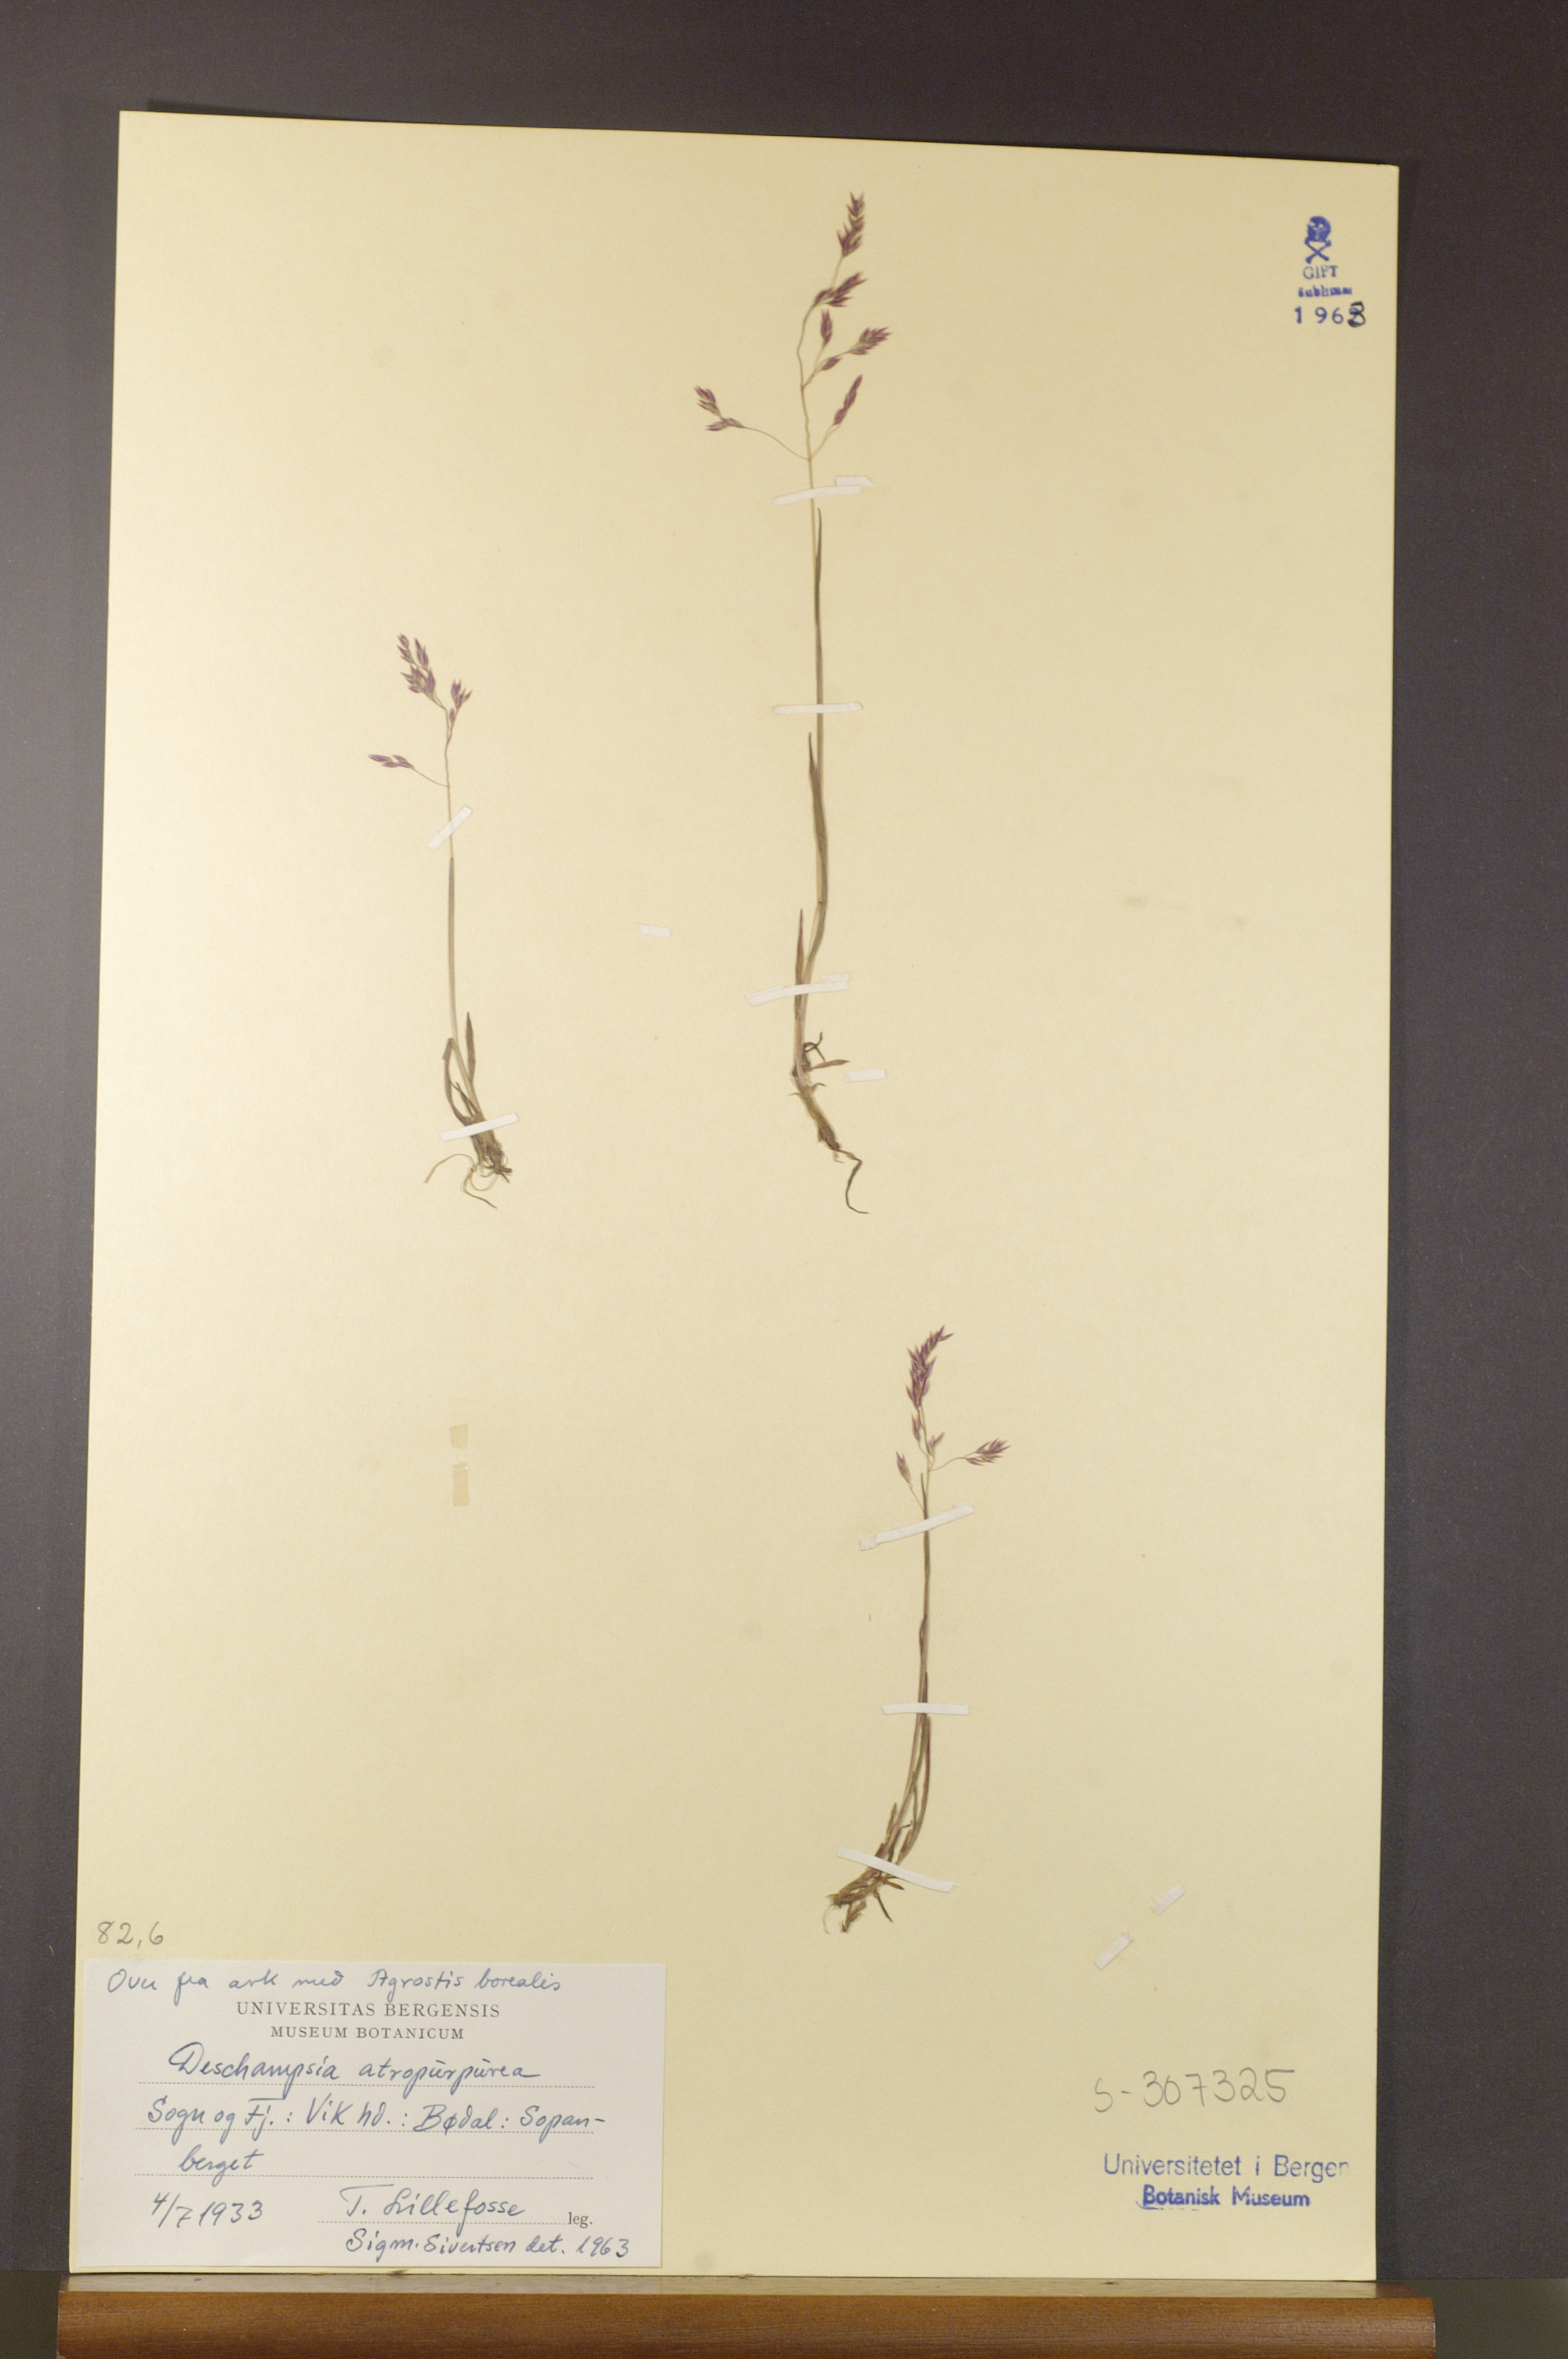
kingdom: Plantae
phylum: Tracheophyta
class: Liliopsida
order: Poales
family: Poaceae
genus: Vahlodea
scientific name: Vahlodea atropurpurea
